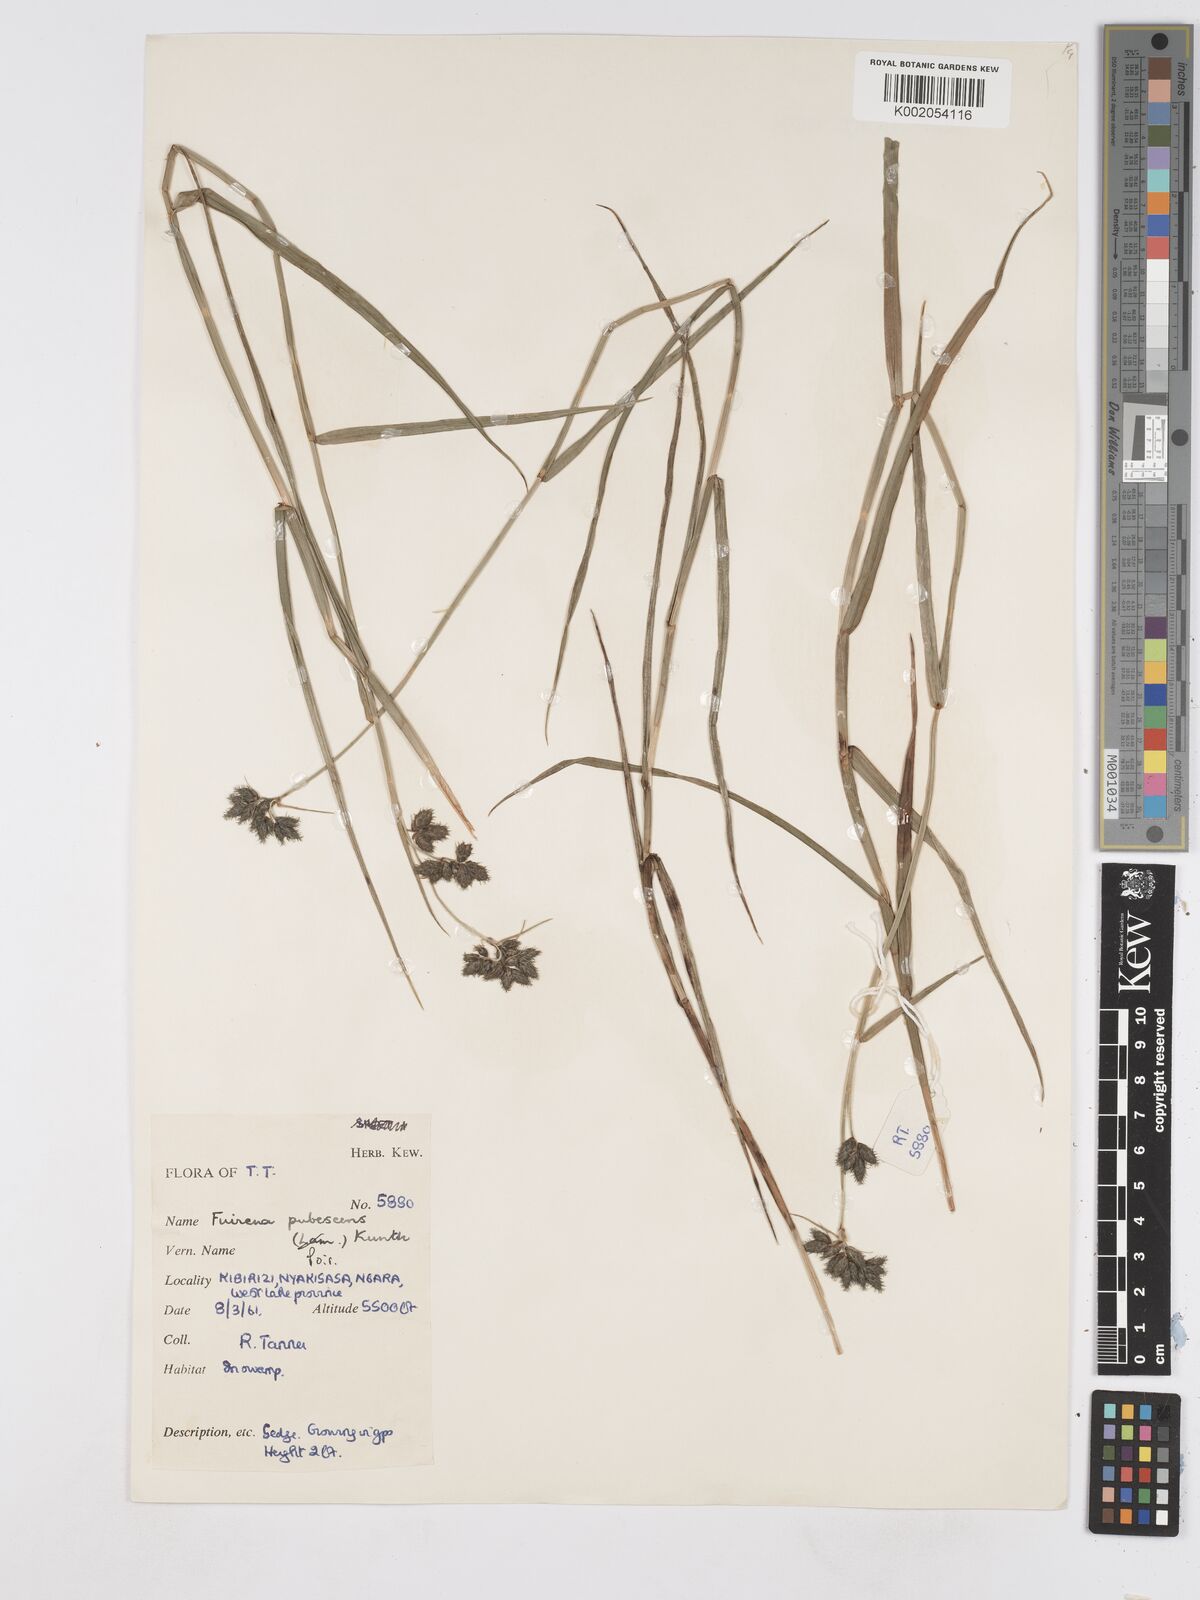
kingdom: Plantae
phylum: Tracheophyta
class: Liliopsida
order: Poales
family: Cyperaceae
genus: Fuirena
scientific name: Fuirena pubescens
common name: Hairy sedge
